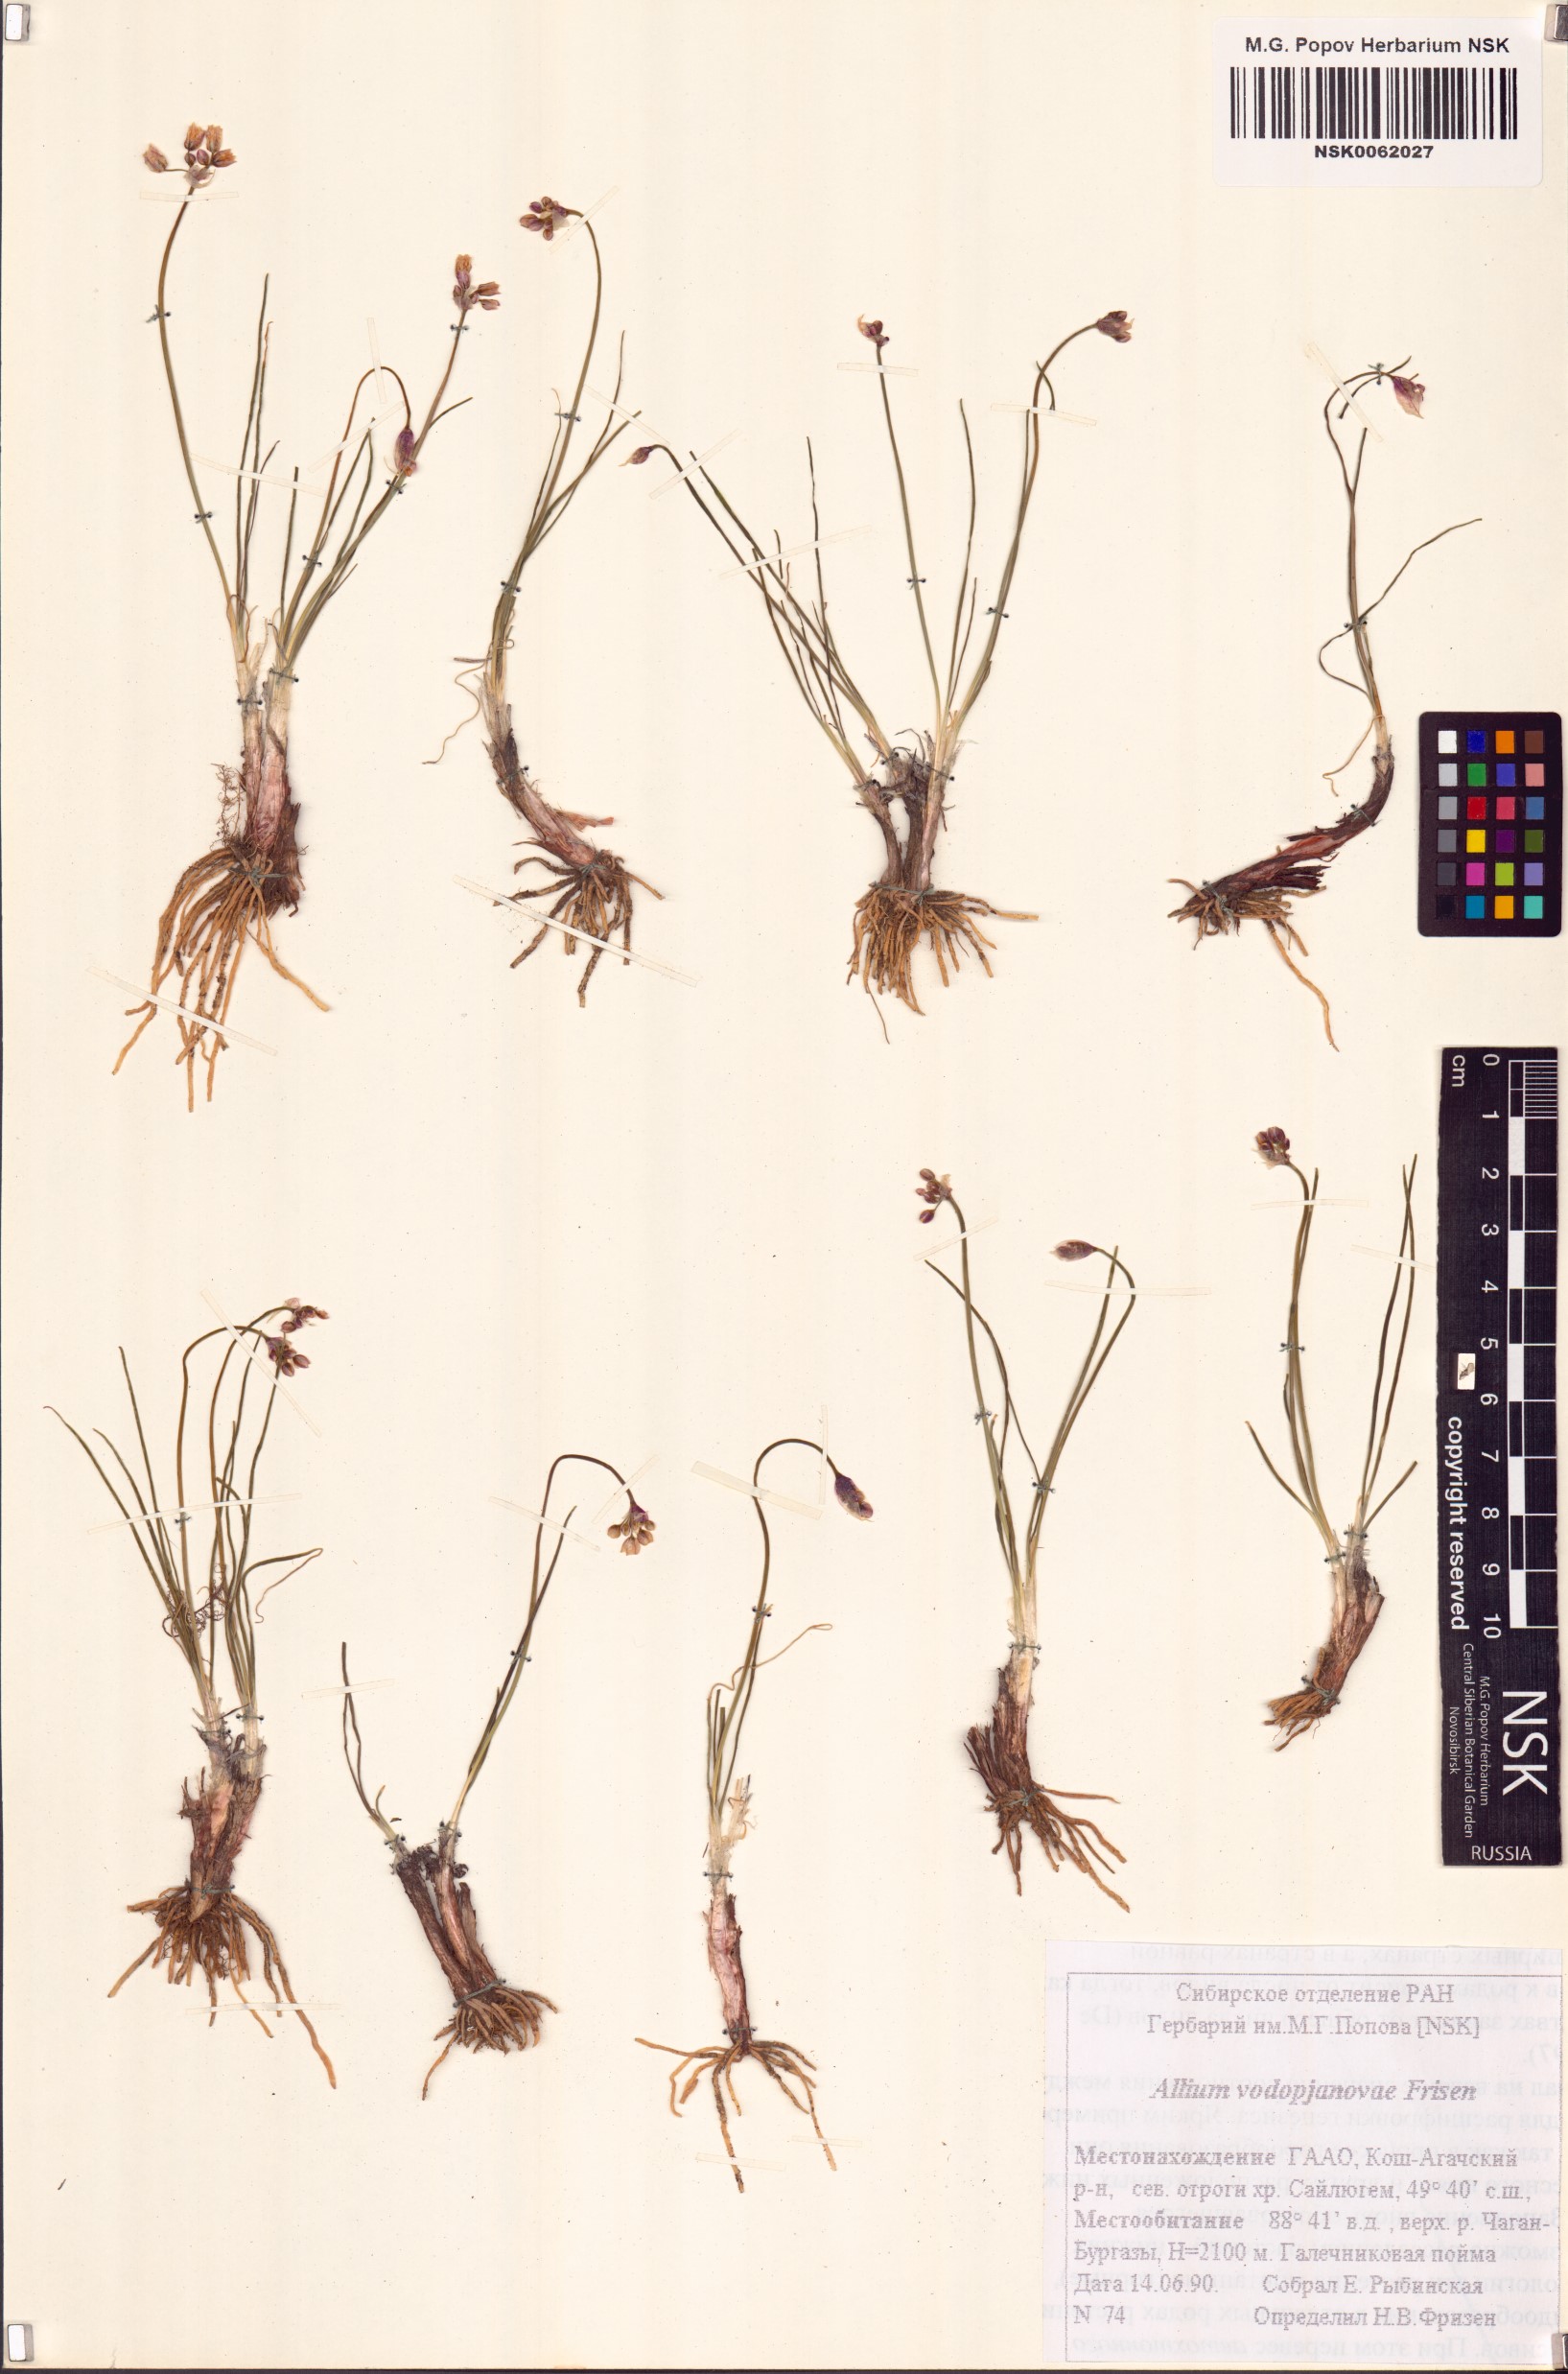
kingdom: Plantae
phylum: Tracheophyta
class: Liliopsida
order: Asparagales
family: Amaryllidaceae
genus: Allium
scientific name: Allium vodopjanovae
